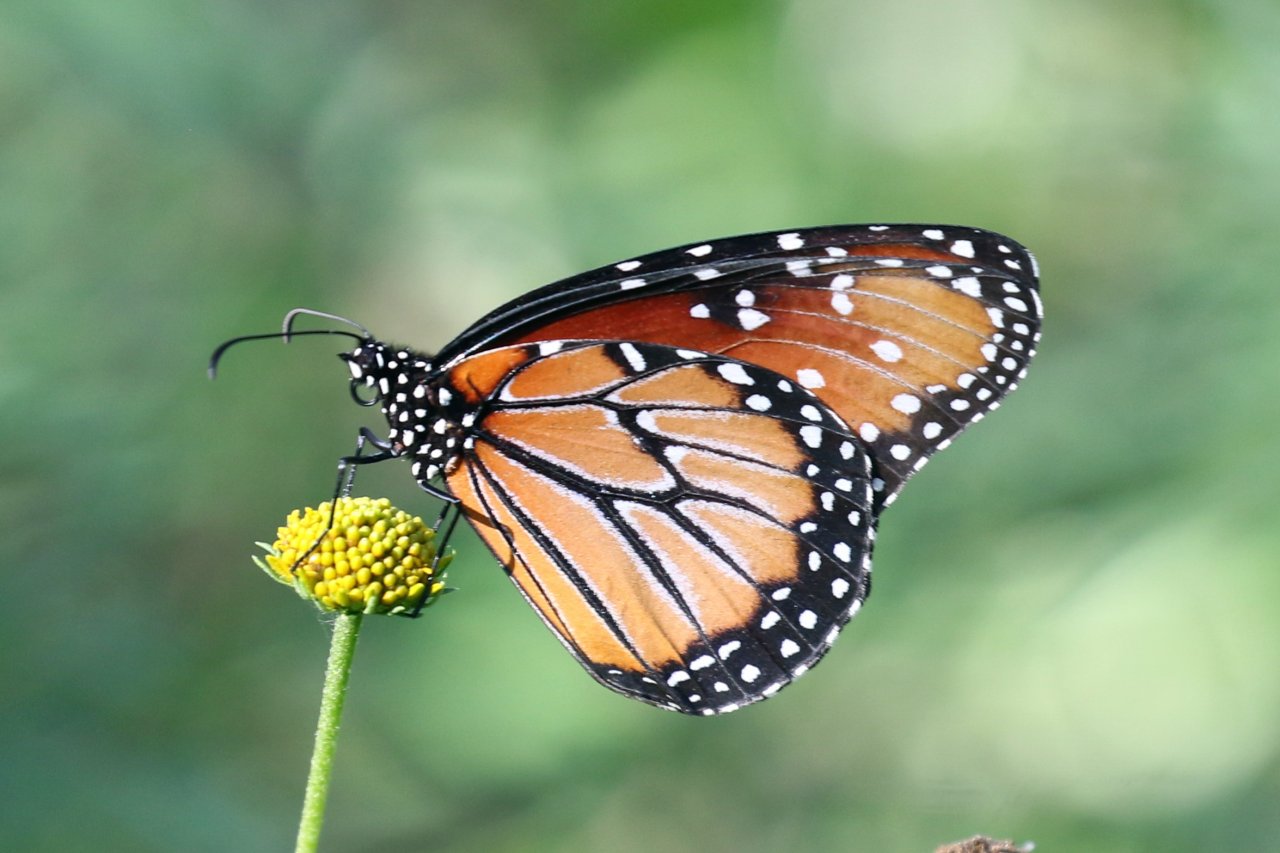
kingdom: Animalia
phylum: Arthropoda
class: Insecta
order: Lepidoptera
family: Nymphalidae
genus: Danaus
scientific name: Danaus gilippus
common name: Queen
